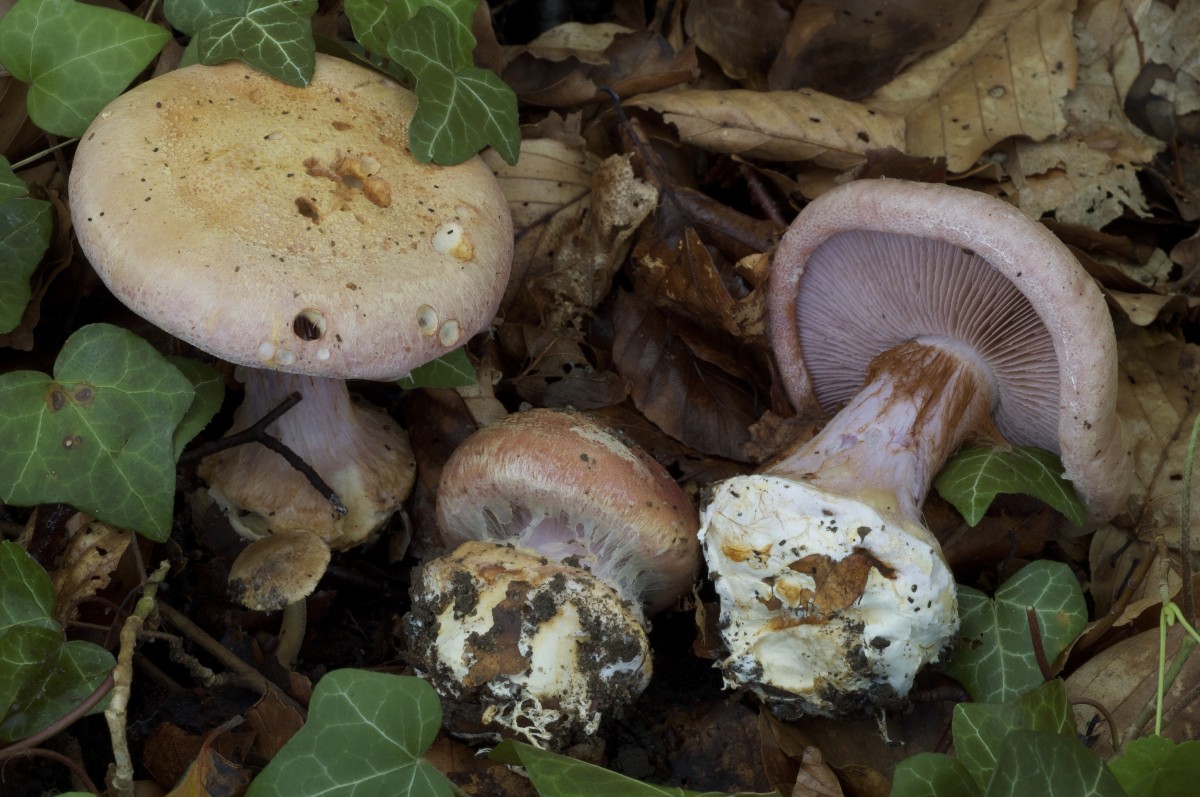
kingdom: Fungi
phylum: Basidiomycota
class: Agaricomycetes
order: Agaricales
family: Cortinariaceae
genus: Calonarius
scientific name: Calonarius suaveolens
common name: sødtduftende slørhat
